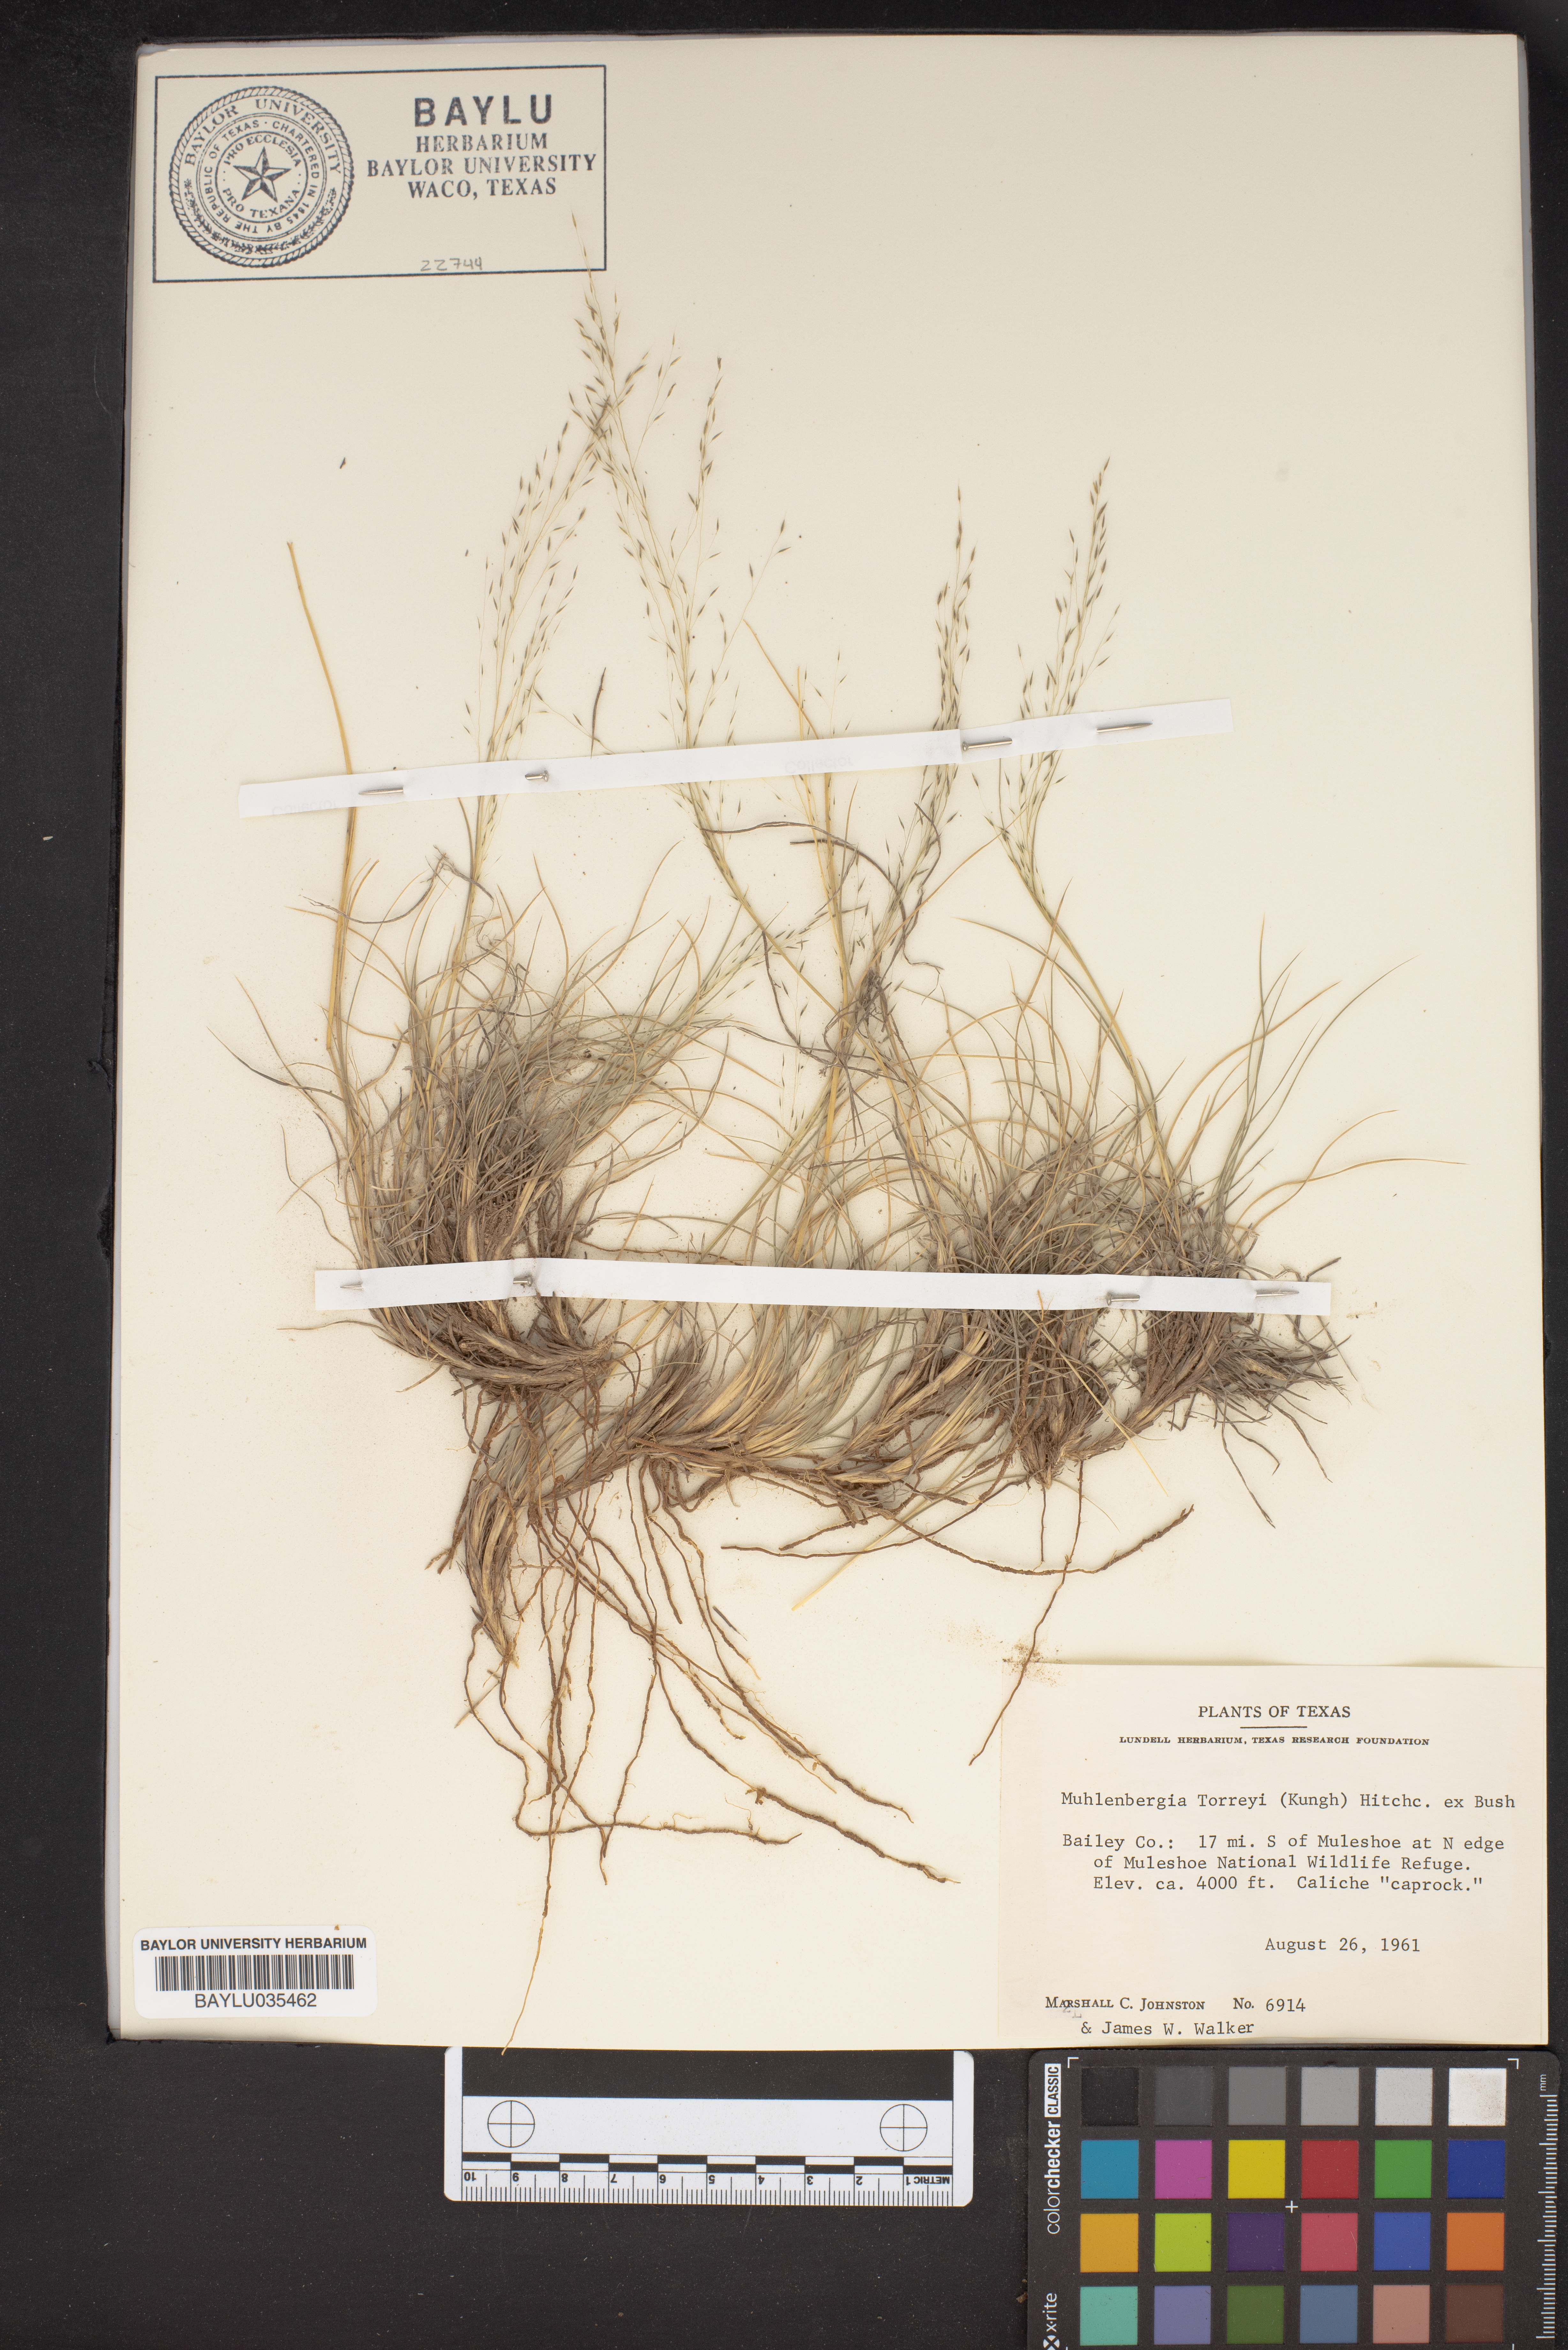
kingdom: Plantae
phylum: Tracheophyta
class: Liliopsida
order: Poales
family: Poaceae
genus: Muhlenbergia
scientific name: Muhlenbergia torreyi
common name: Ring grass
